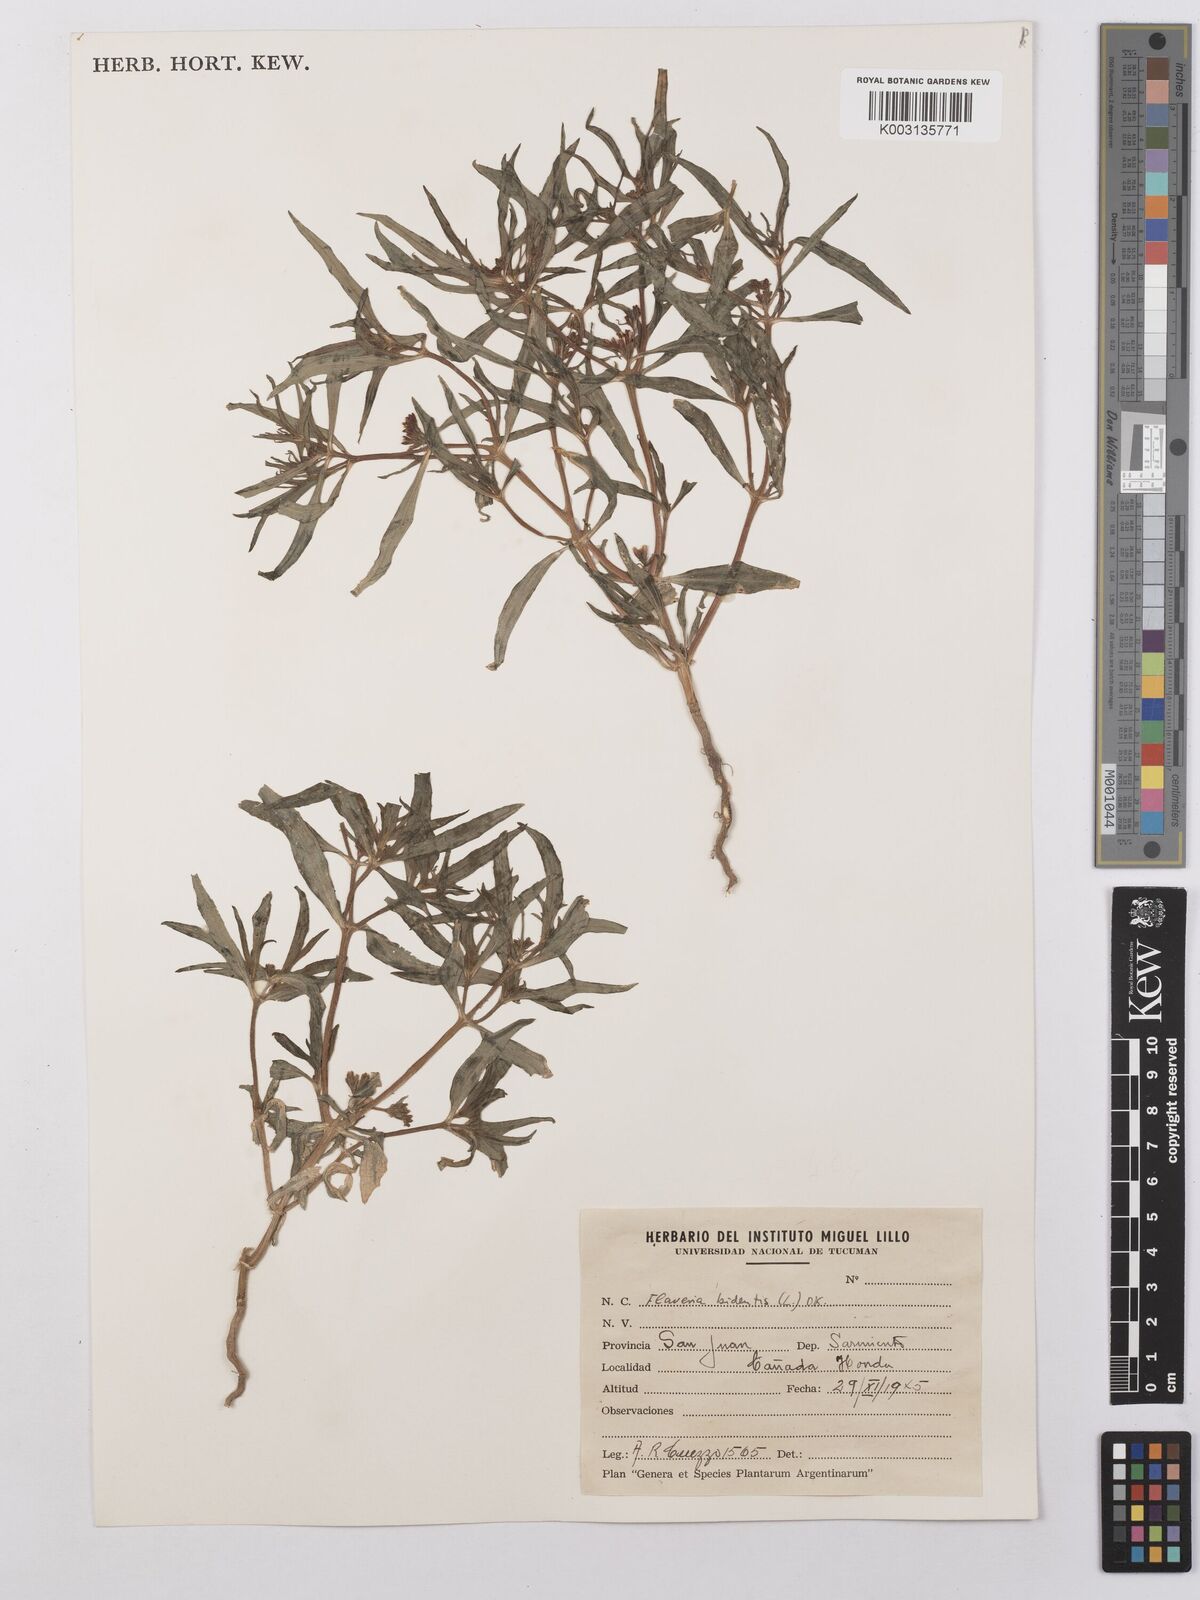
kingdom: Plantae
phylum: Tracheophyta
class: Magnoliopsida
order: Asterales
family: Asteraceae
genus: Flaveria
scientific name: Flaveria bidentis
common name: Coastal plain yellowtops
